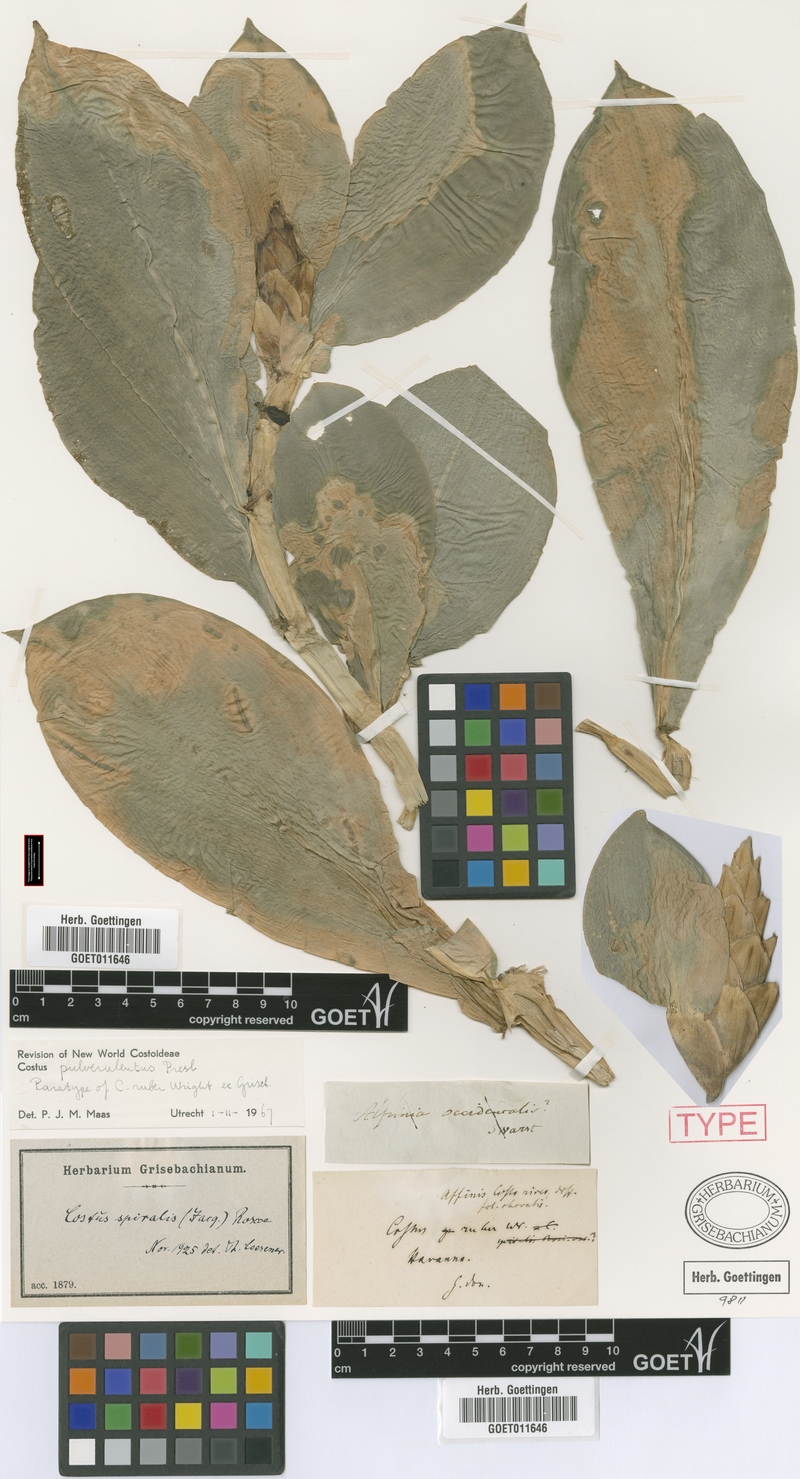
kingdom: Plantae
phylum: Tracheophyta
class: Liliopsida
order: Zingiberales
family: Costaceae
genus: Costus
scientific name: Costus pulverulentus
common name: Spiral ginger
